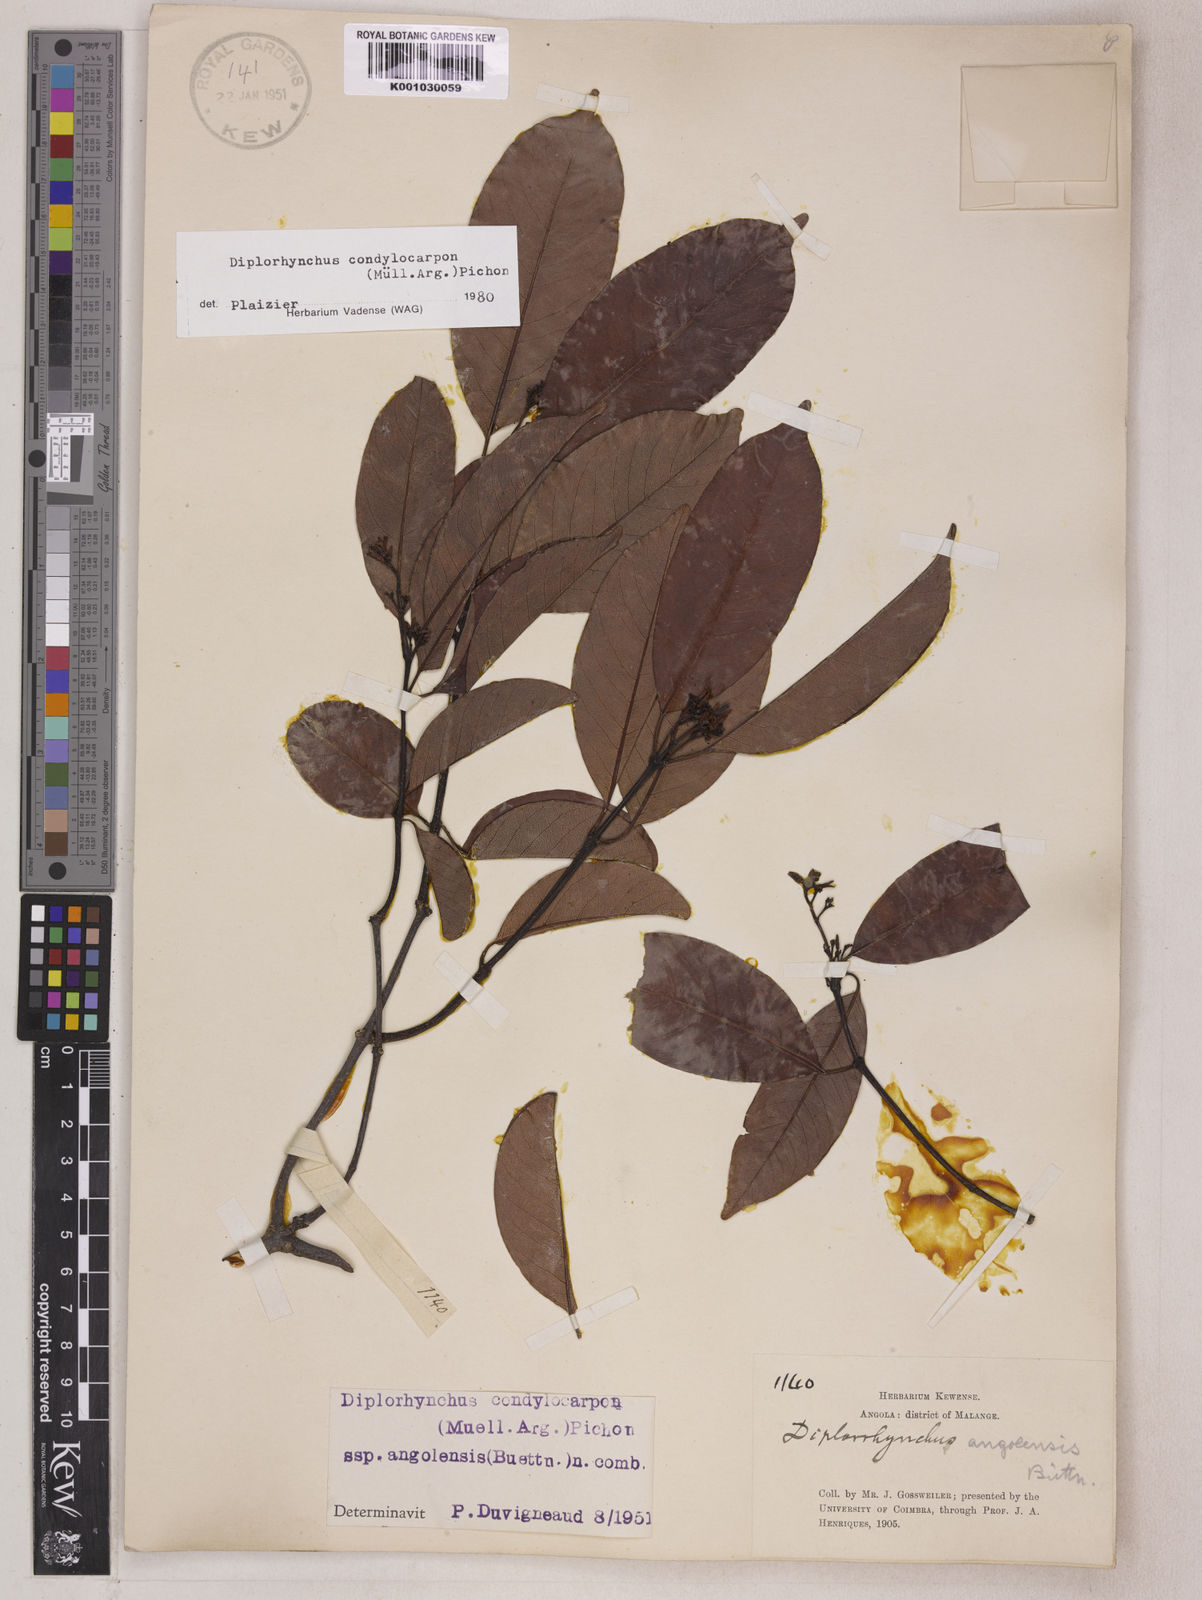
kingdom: Plantae
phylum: Tracheophyta
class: Magnoliopsida
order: Gentianales
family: Apocynaceae
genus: Diplorhynchus
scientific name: Diplorhynchus
